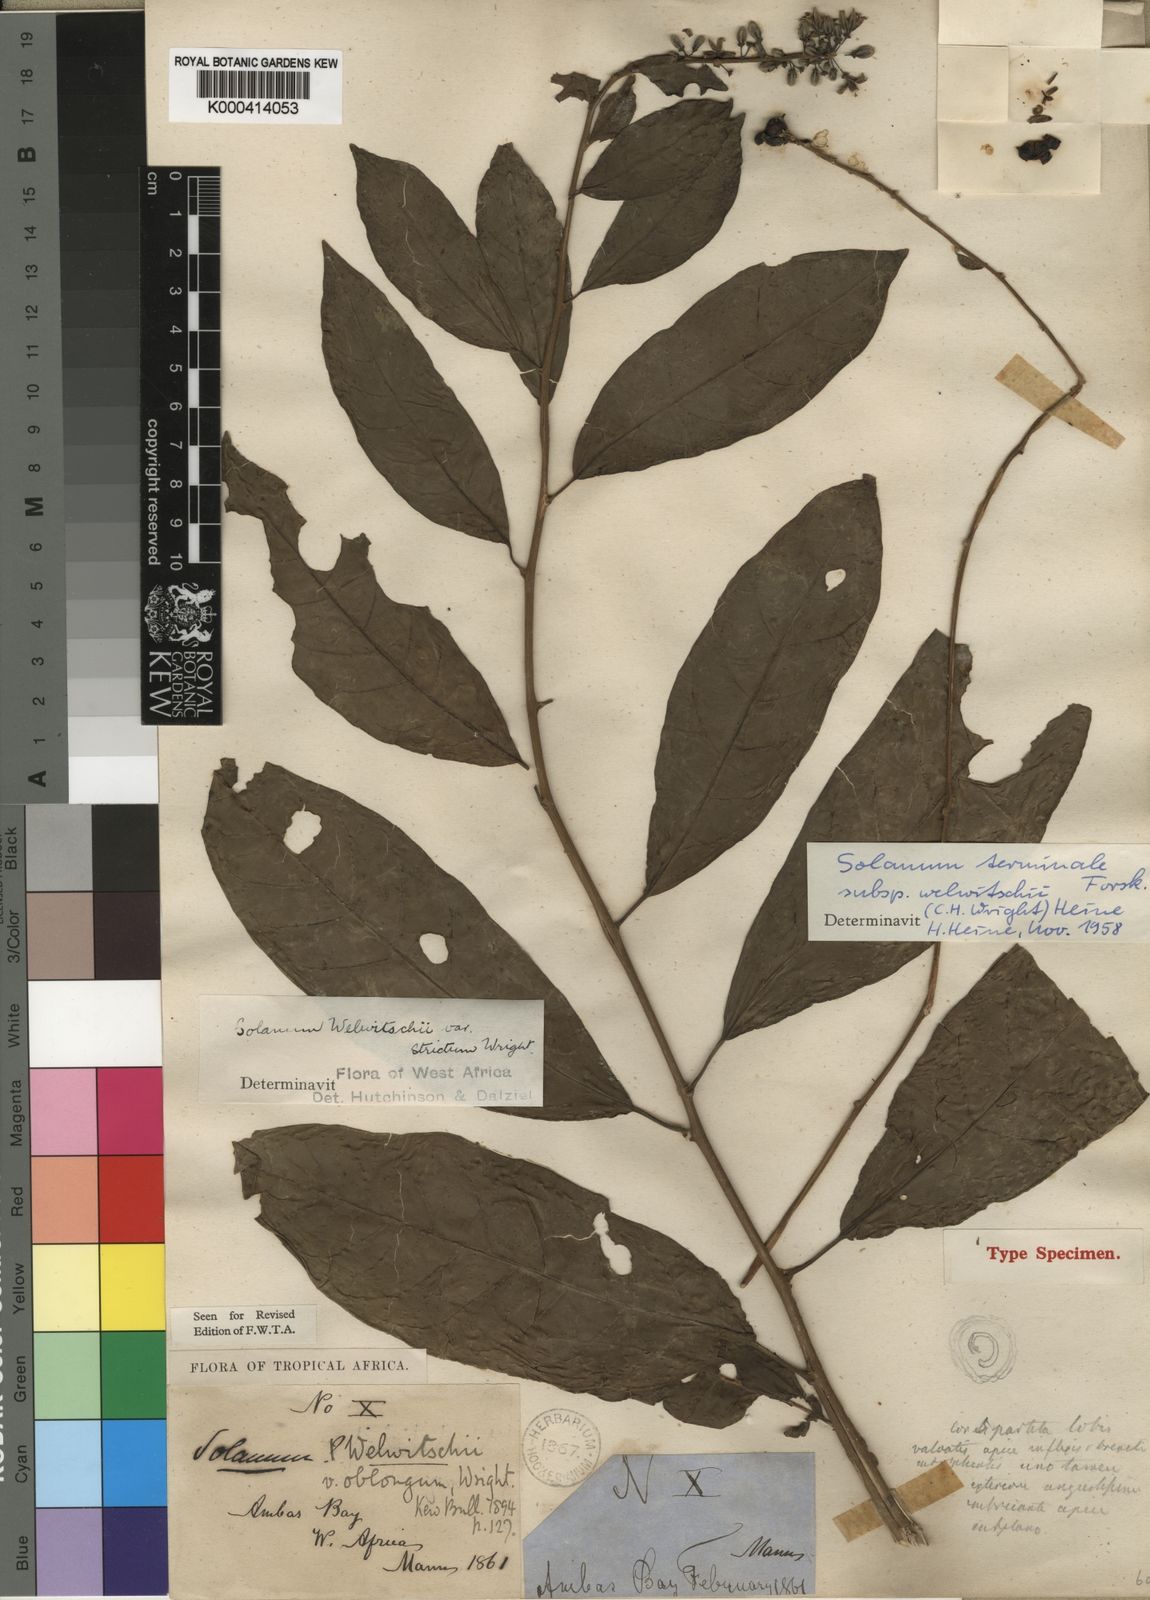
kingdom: Plantae
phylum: Tracheophyta
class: Magnoliopsida
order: Solanales
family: Solanaceae
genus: Solanum
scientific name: Solanum terminale
